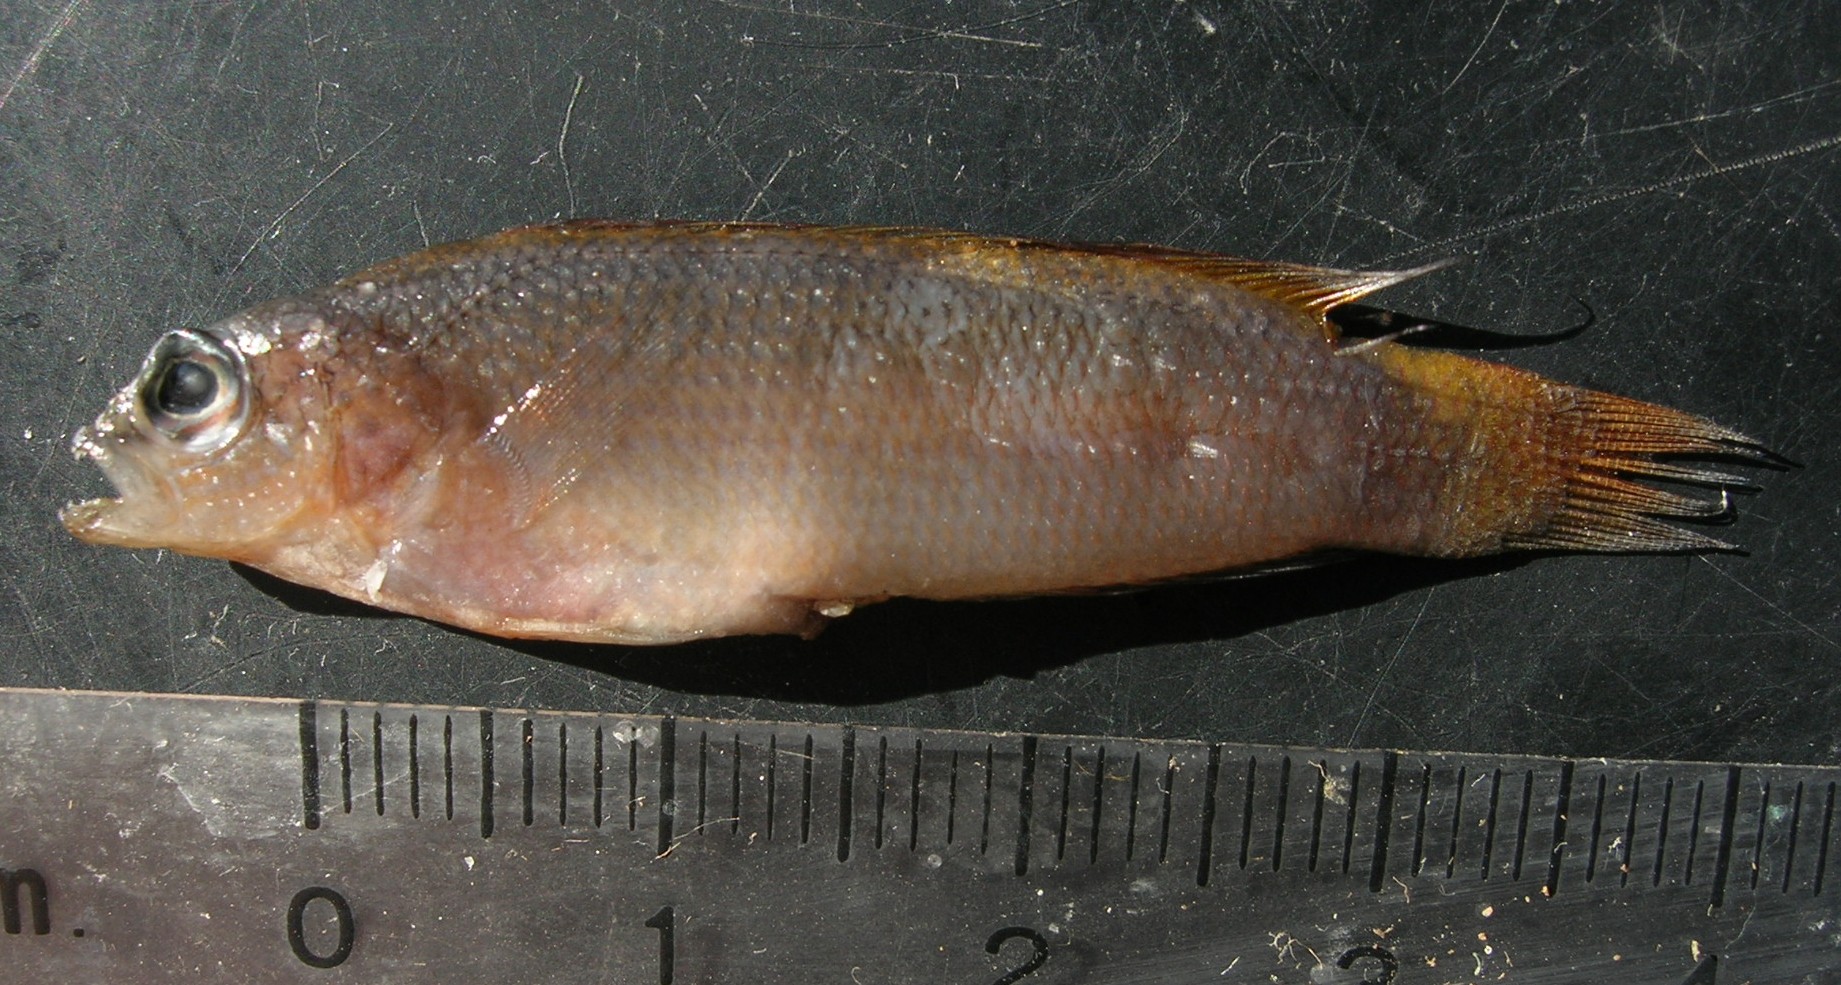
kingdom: Animalia
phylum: Chordata
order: Perciformes
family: Pseudochromidae
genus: Pseudochromis
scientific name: Pseudochromis natalensis
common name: Natal dottyback
